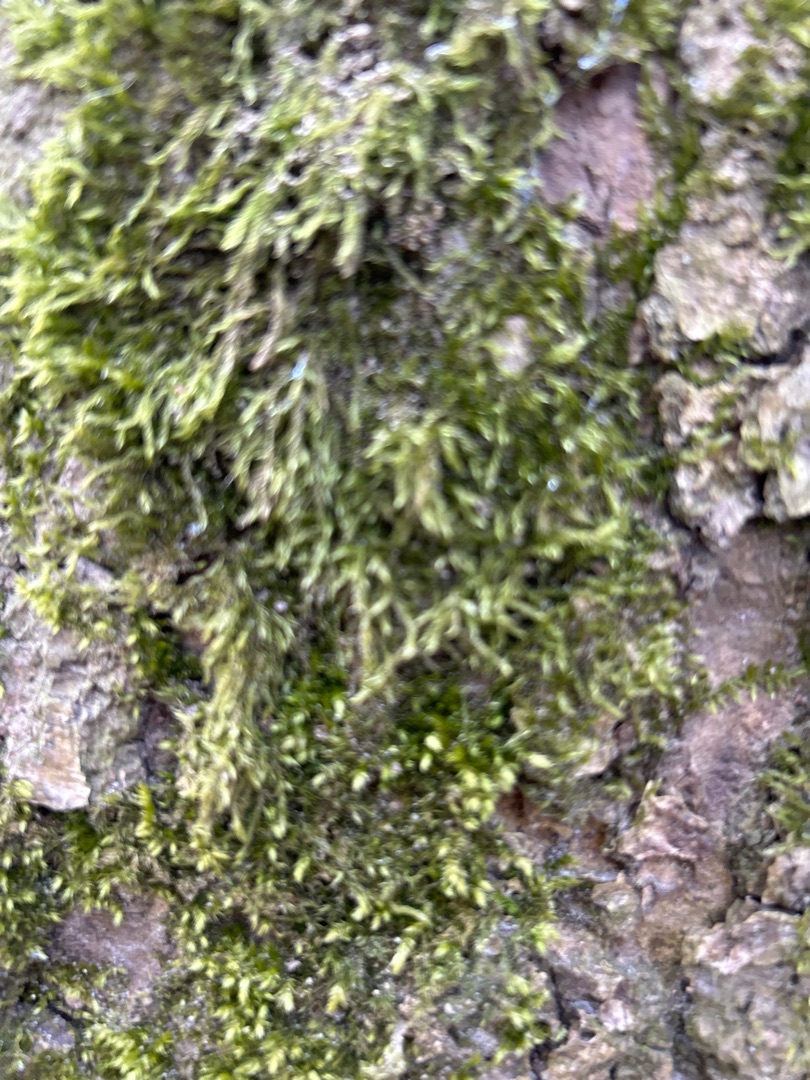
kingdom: Plantae
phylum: Bryophyta
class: Bryopsida
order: Hypnales
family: Hypnaceae
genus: Hypnum
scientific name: Hypnum
